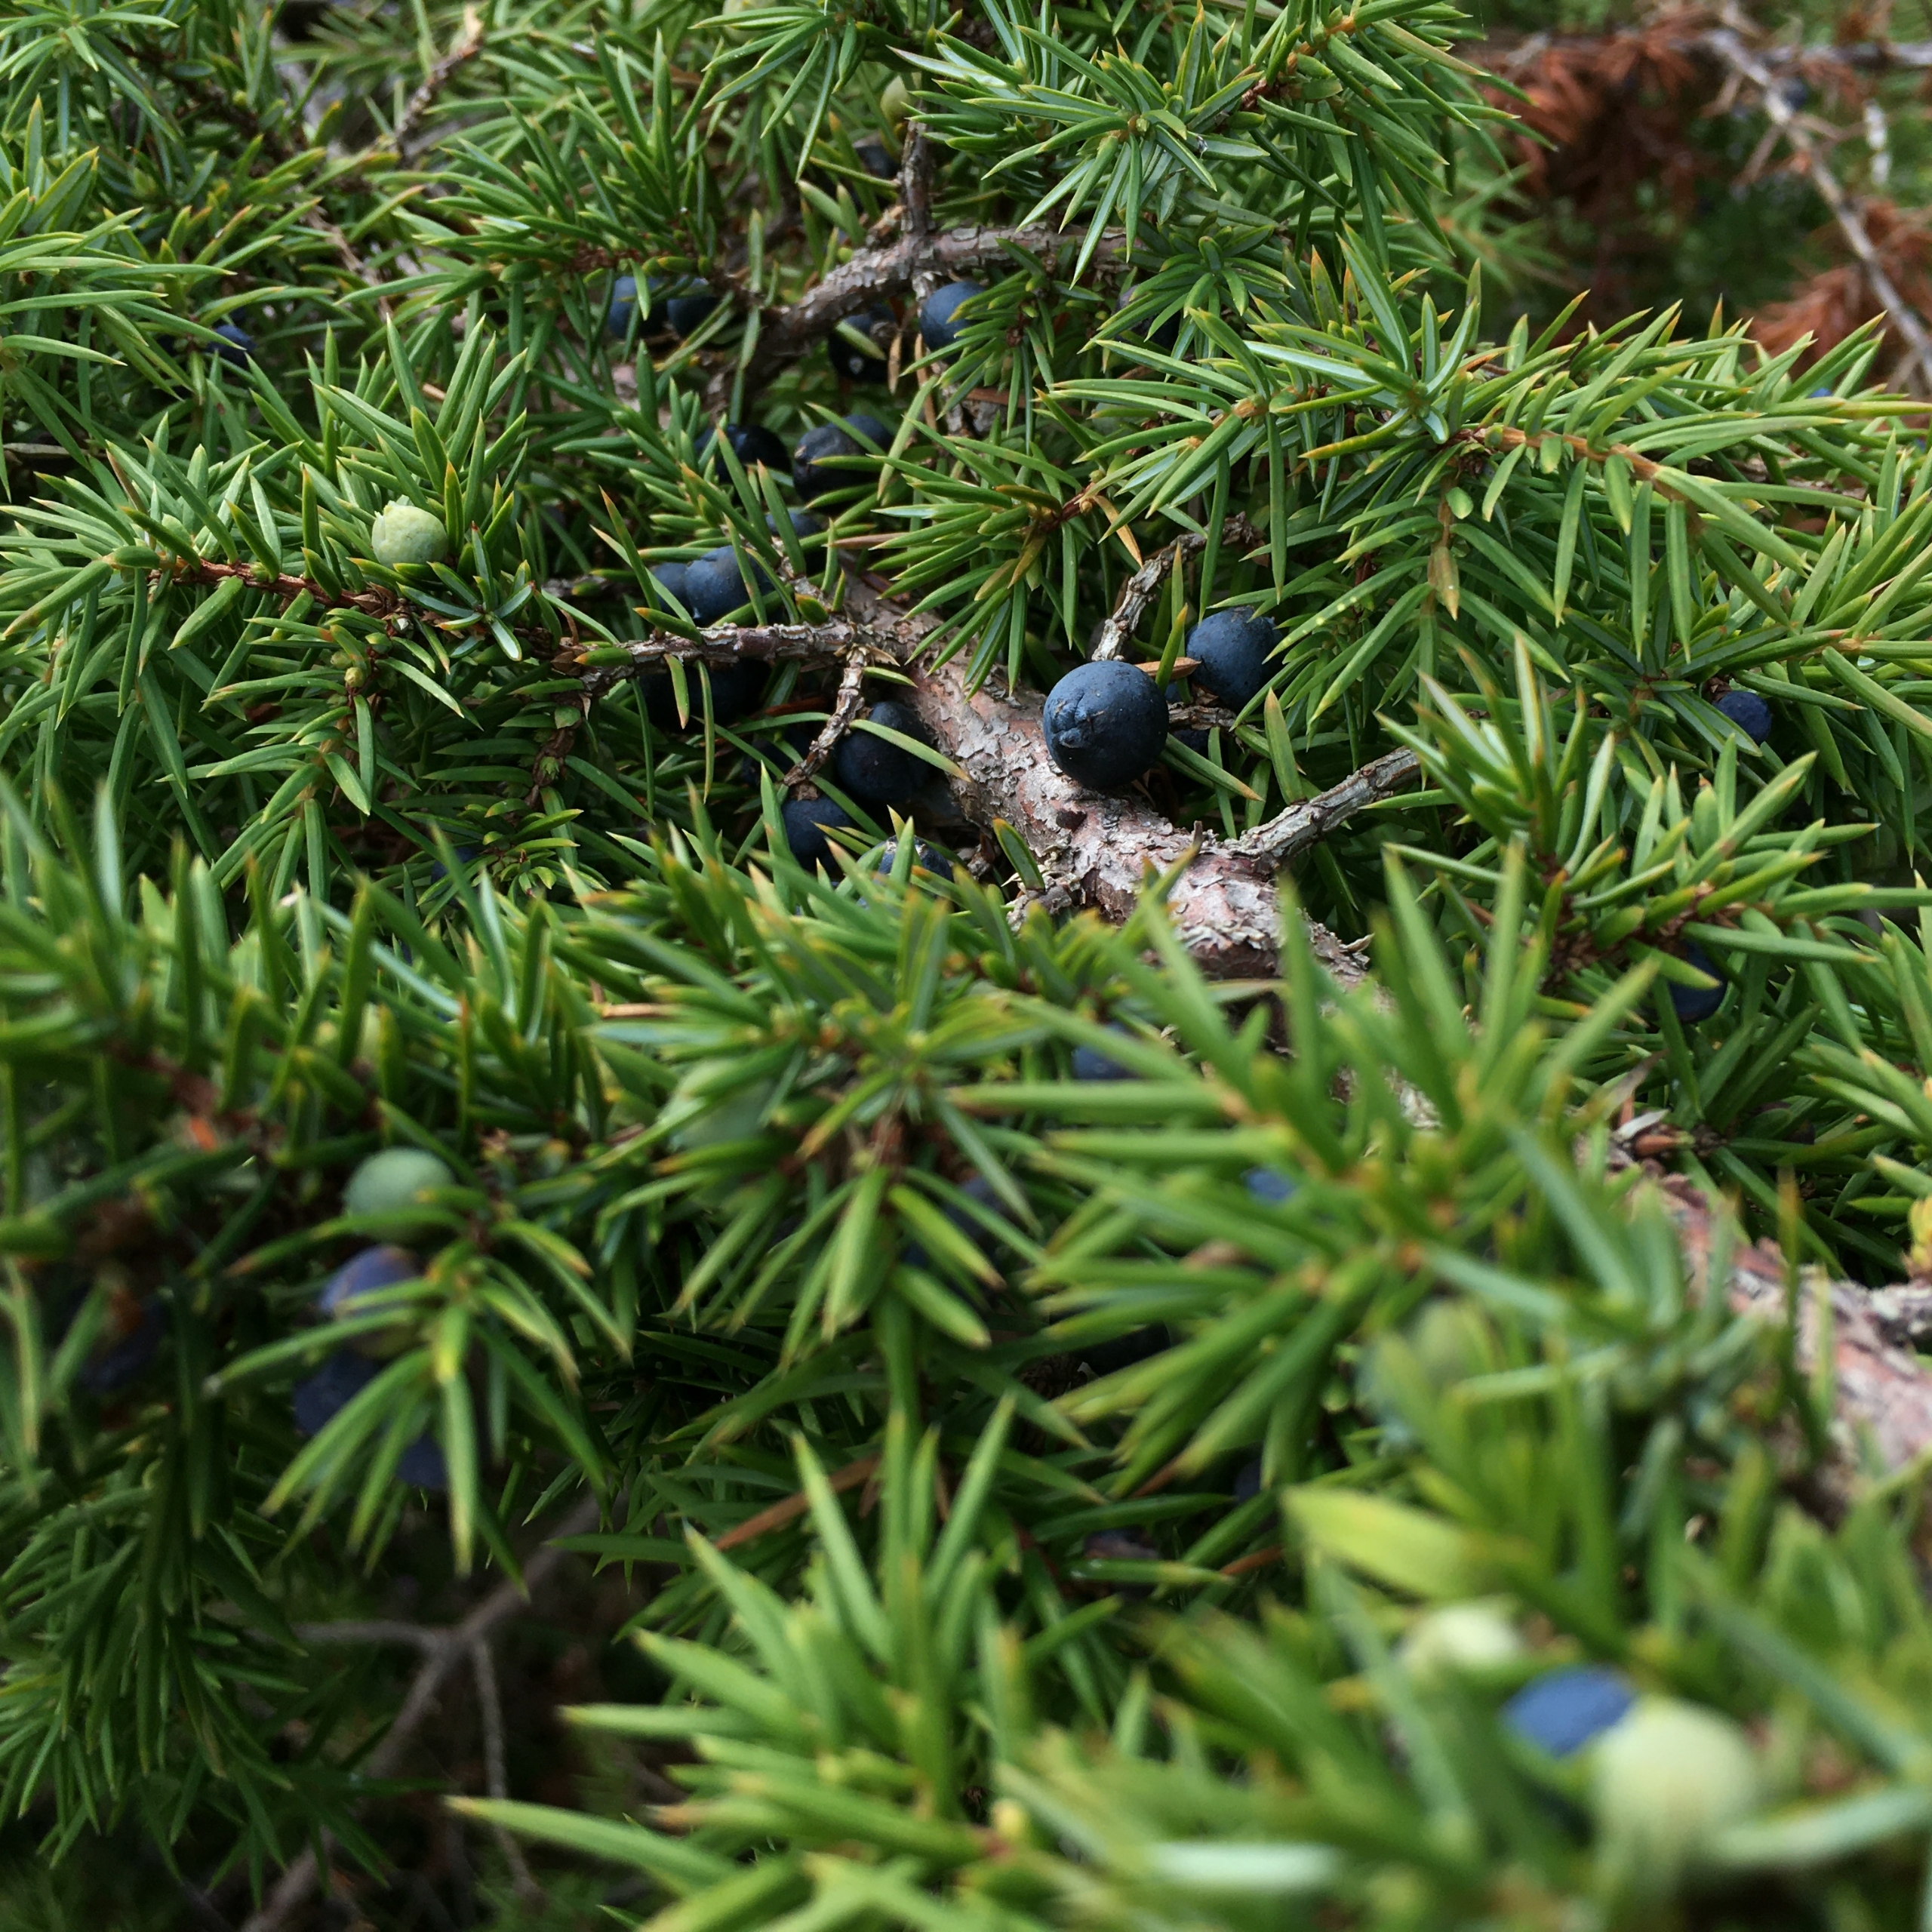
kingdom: Plantae
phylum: Tracheophyta
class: Pinopsida
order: Pinales
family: Cupressaceae
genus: Juniperus
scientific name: Juniperus communis
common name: Almindelig ene
